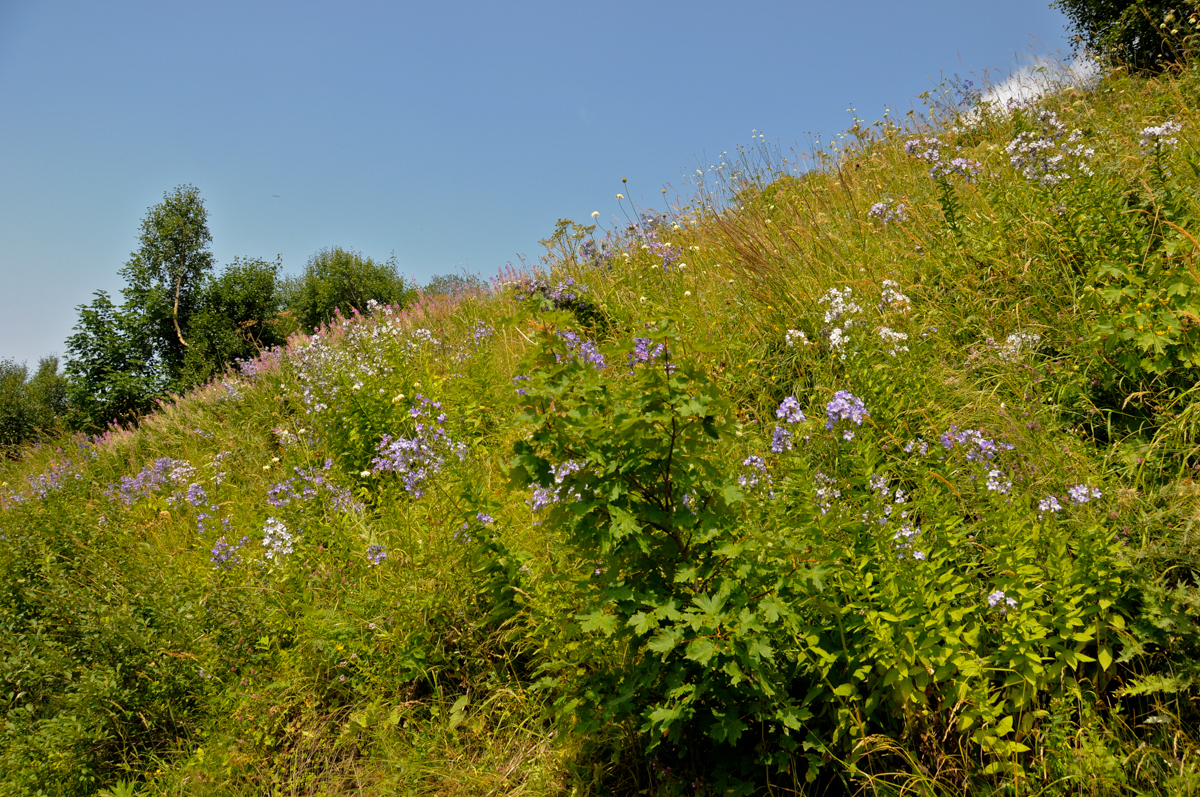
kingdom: Plantae
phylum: Tracheophyta
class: Magnoliopsida
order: Asterales
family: Campanulaceae
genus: Campanula
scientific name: Campanula lactiflora
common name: Milky bellflower
